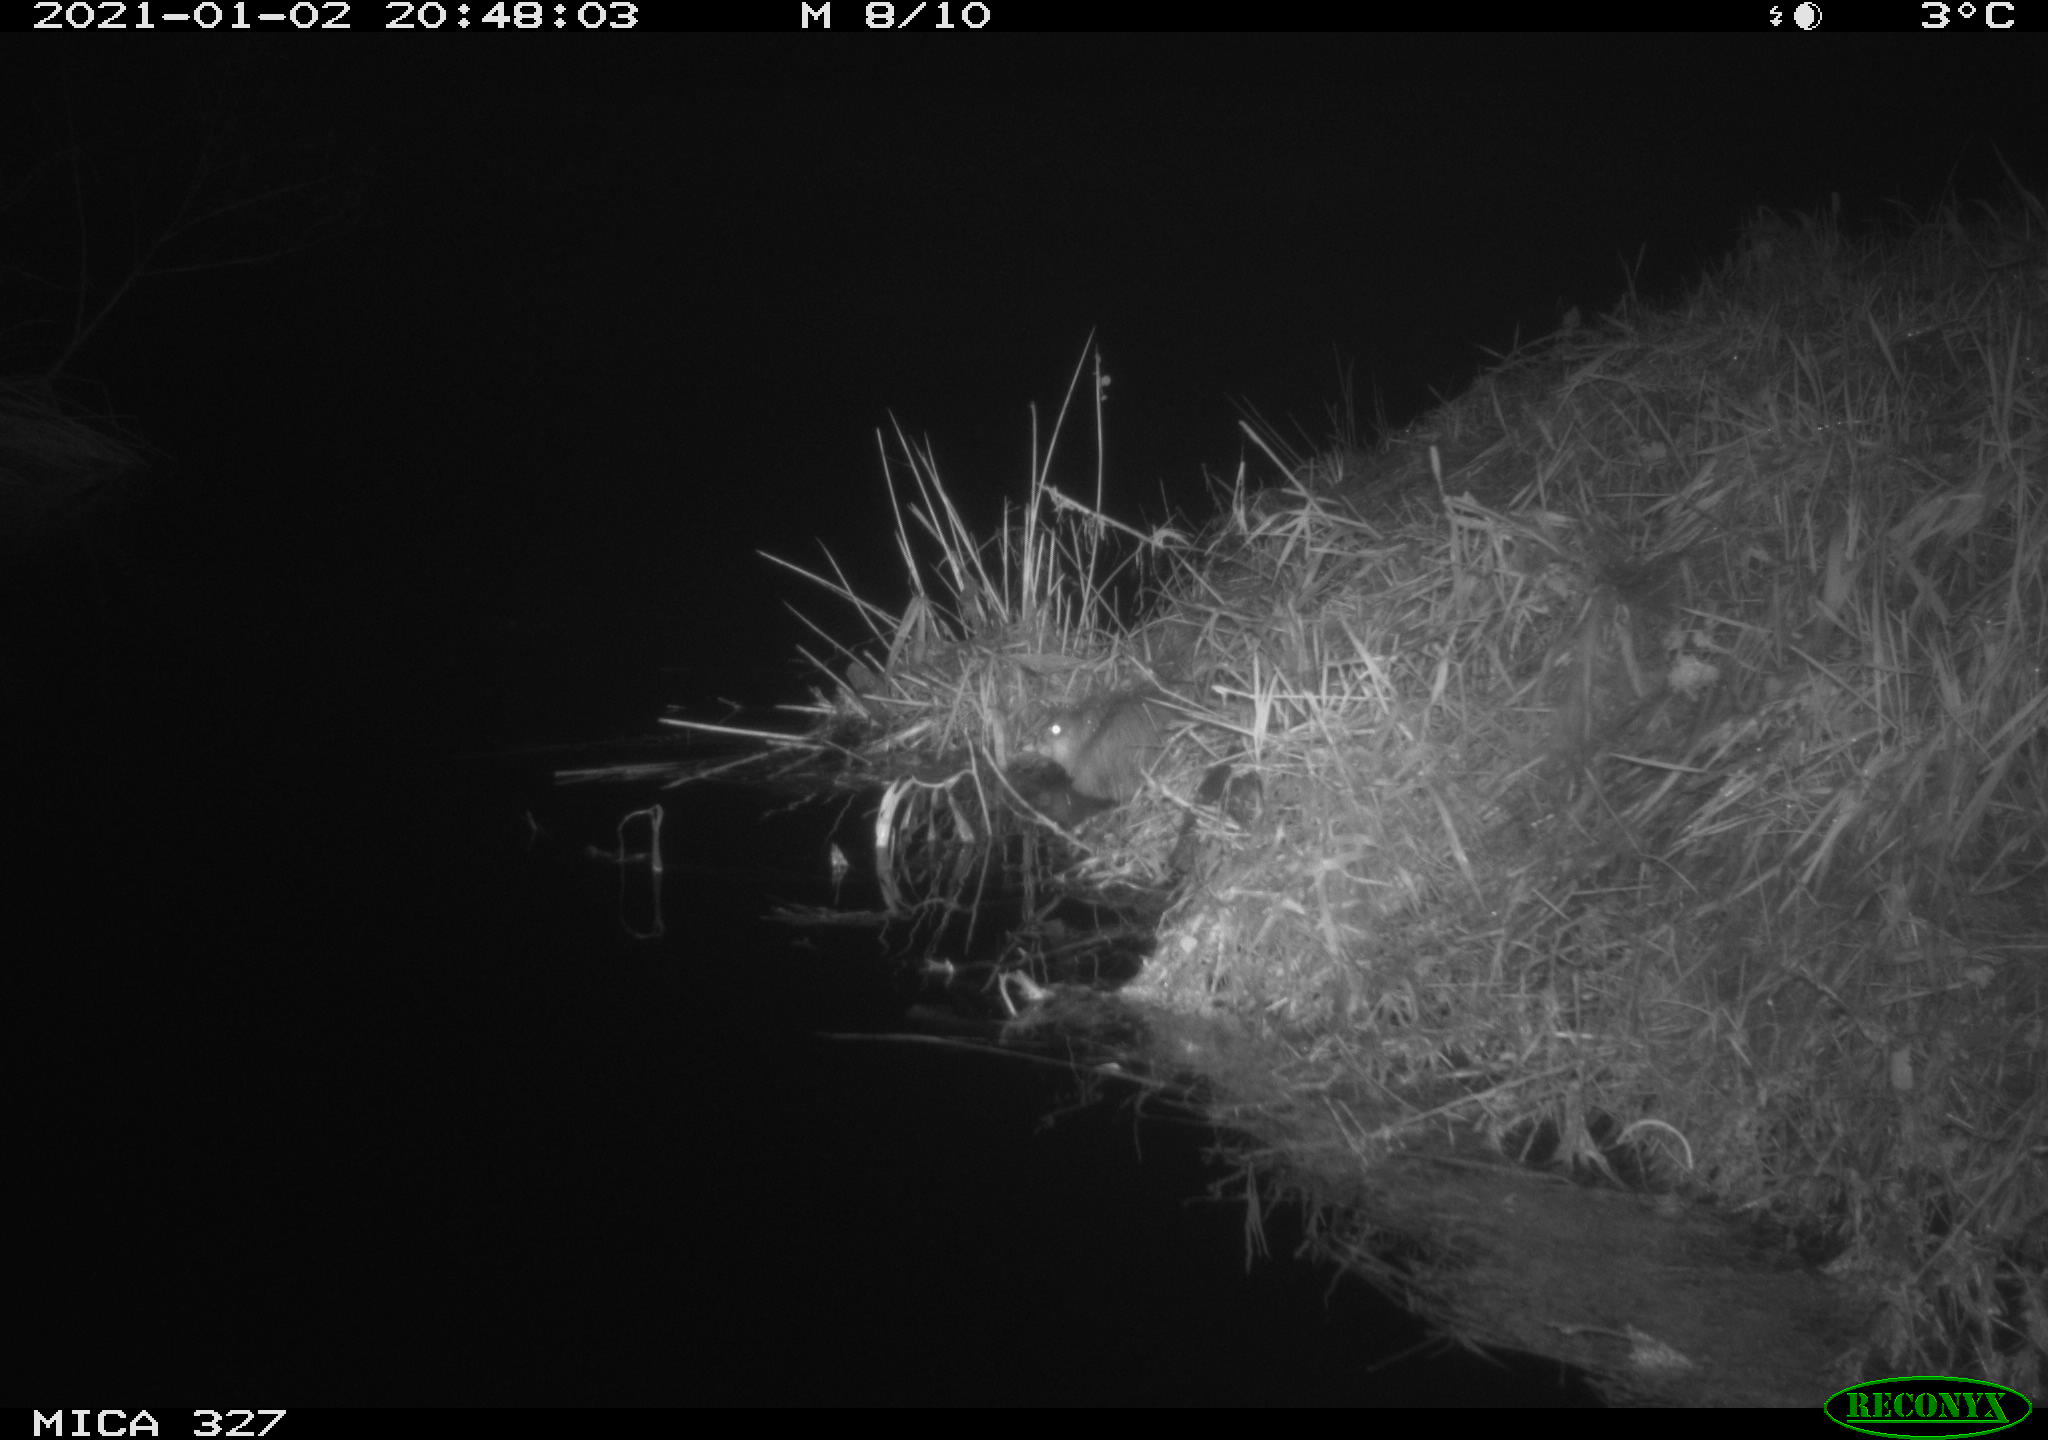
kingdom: Animalia
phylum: Chordata
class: Mammalia
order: Rodentia
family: Cricetidae
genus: Ondatra
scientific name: Ondatra zibethicus
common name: Muskrat
